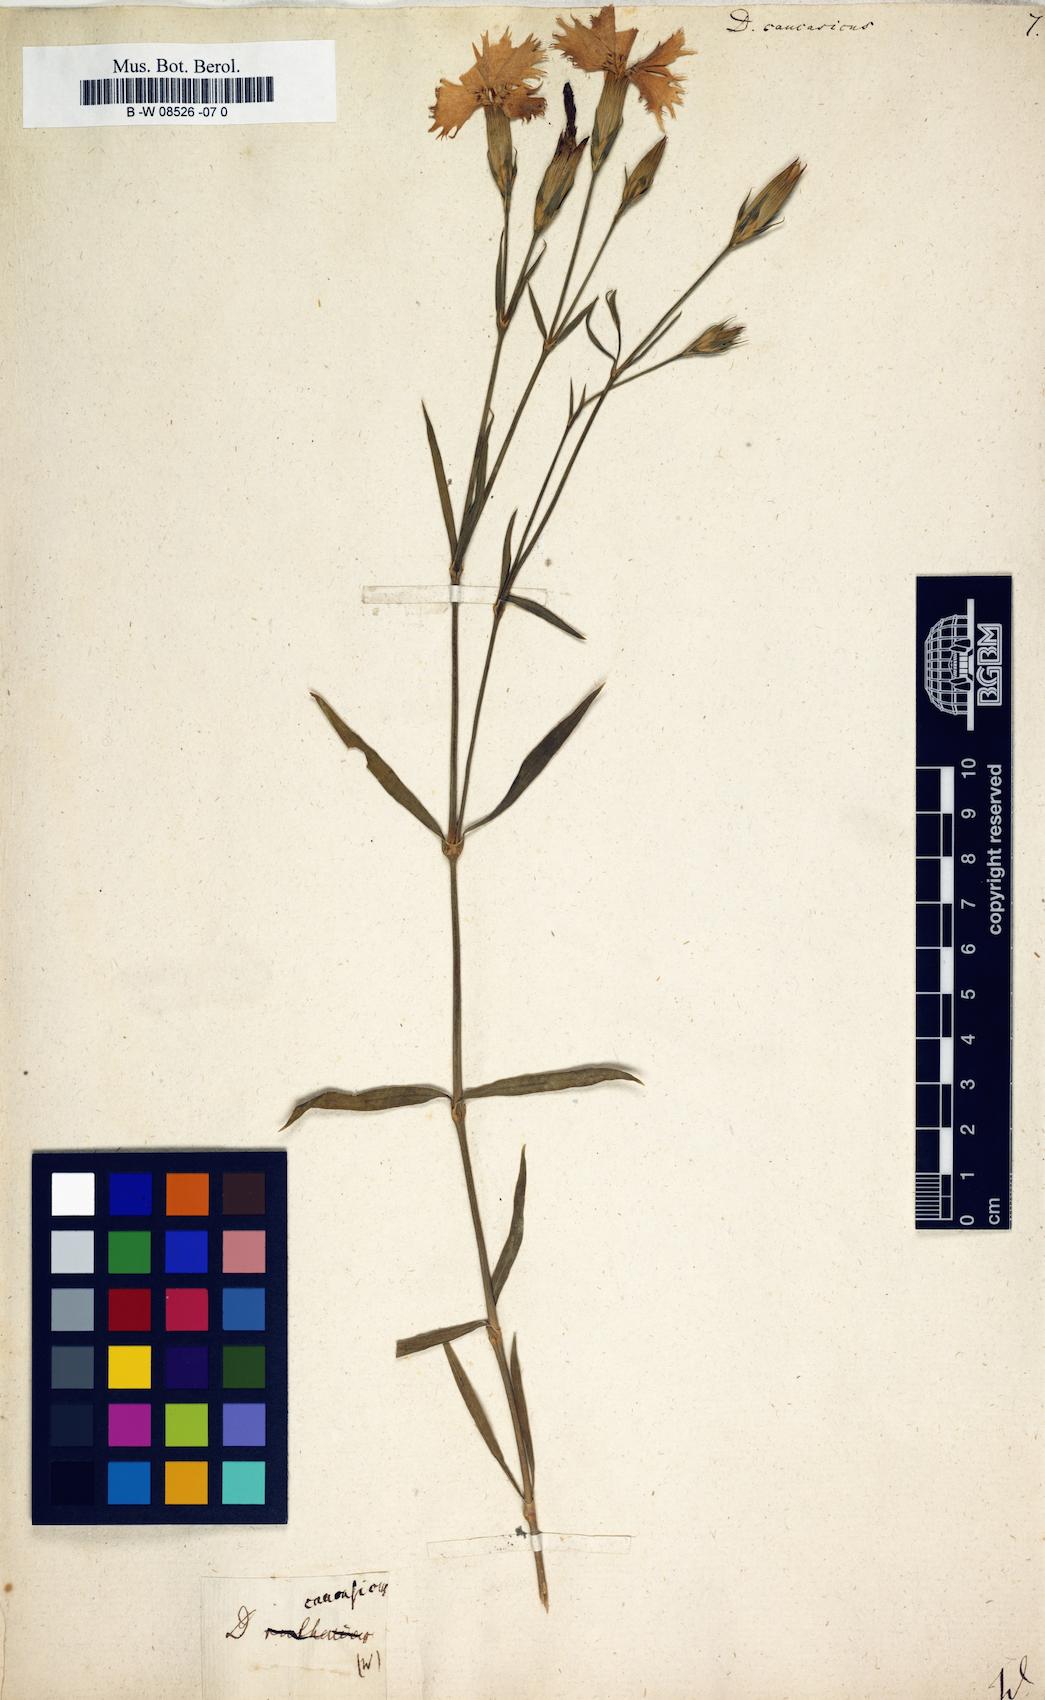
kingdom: Plantae
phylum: Tracheophyta
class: Magnoliopsida
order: Caryophyllales
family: Caryophyllaceae
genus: Dianthus
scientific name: Dianthus
